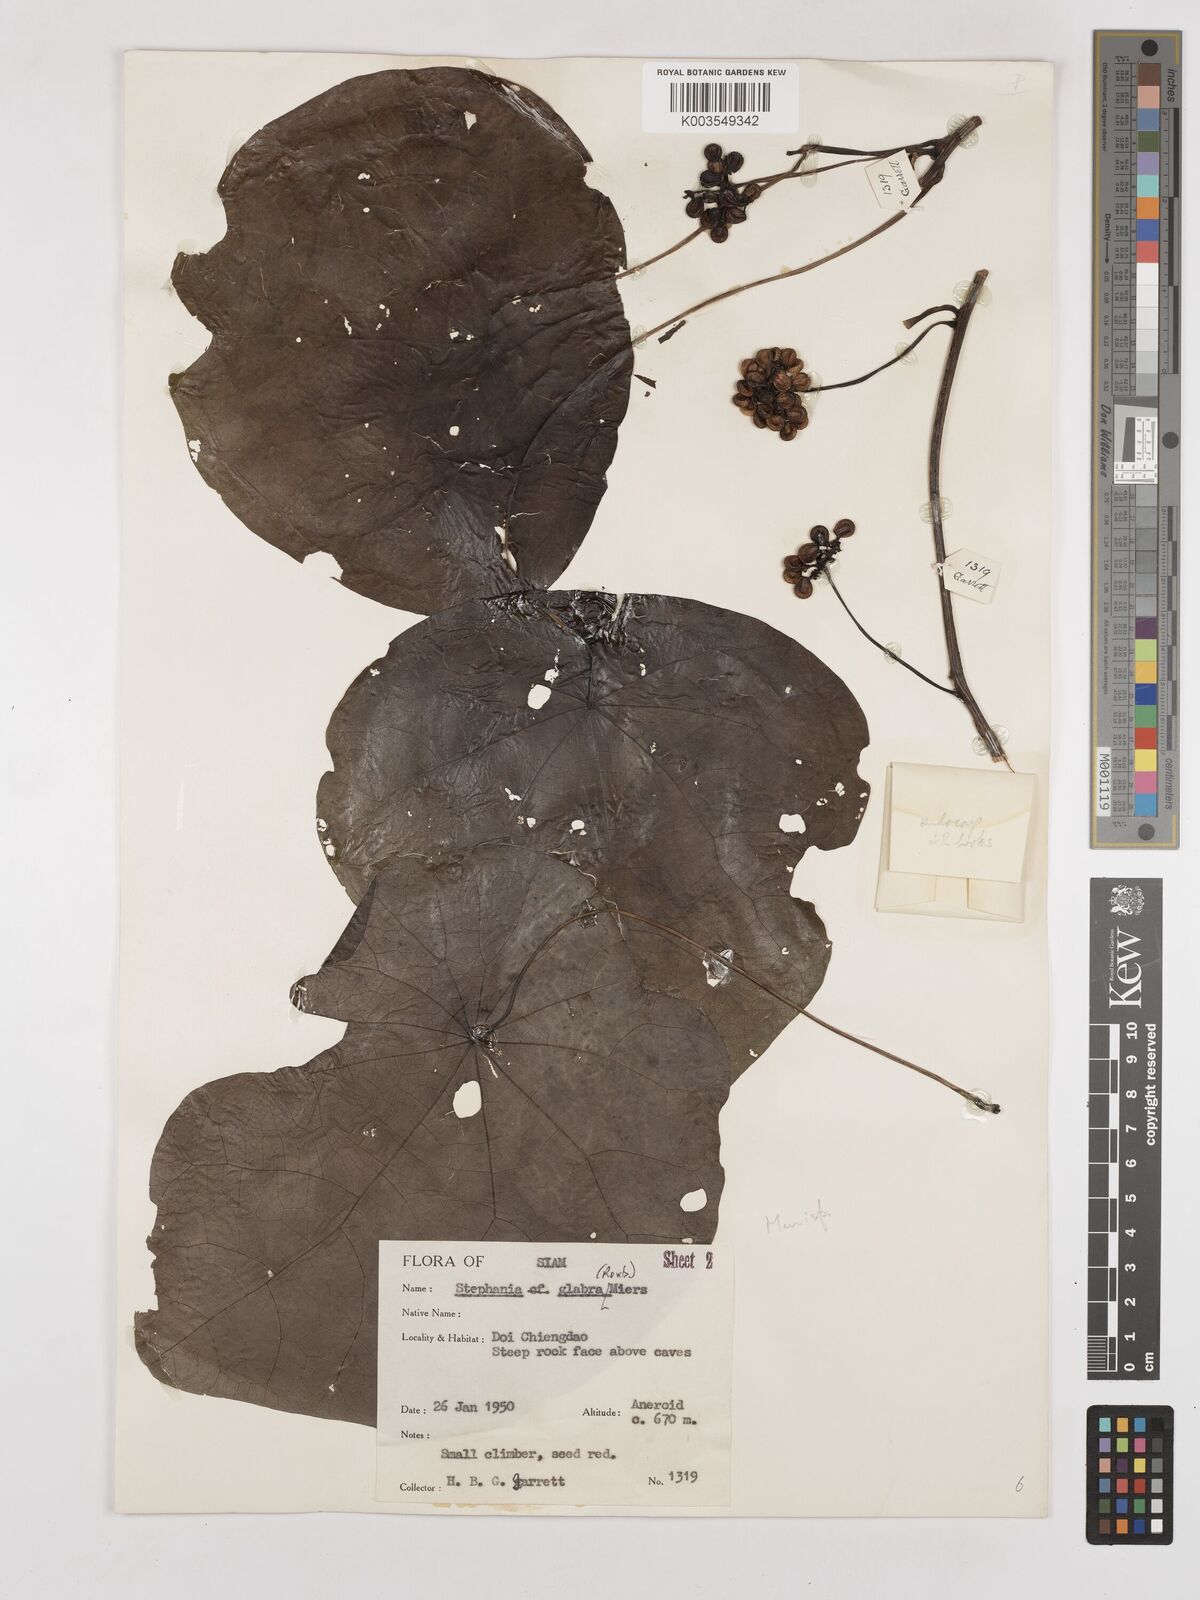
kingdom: Plantae
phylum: Tracheophyta
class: Magnoliopsida
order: Ranunculales
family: Menispermaceae
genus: Stephania
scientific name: Stephania rotunda
